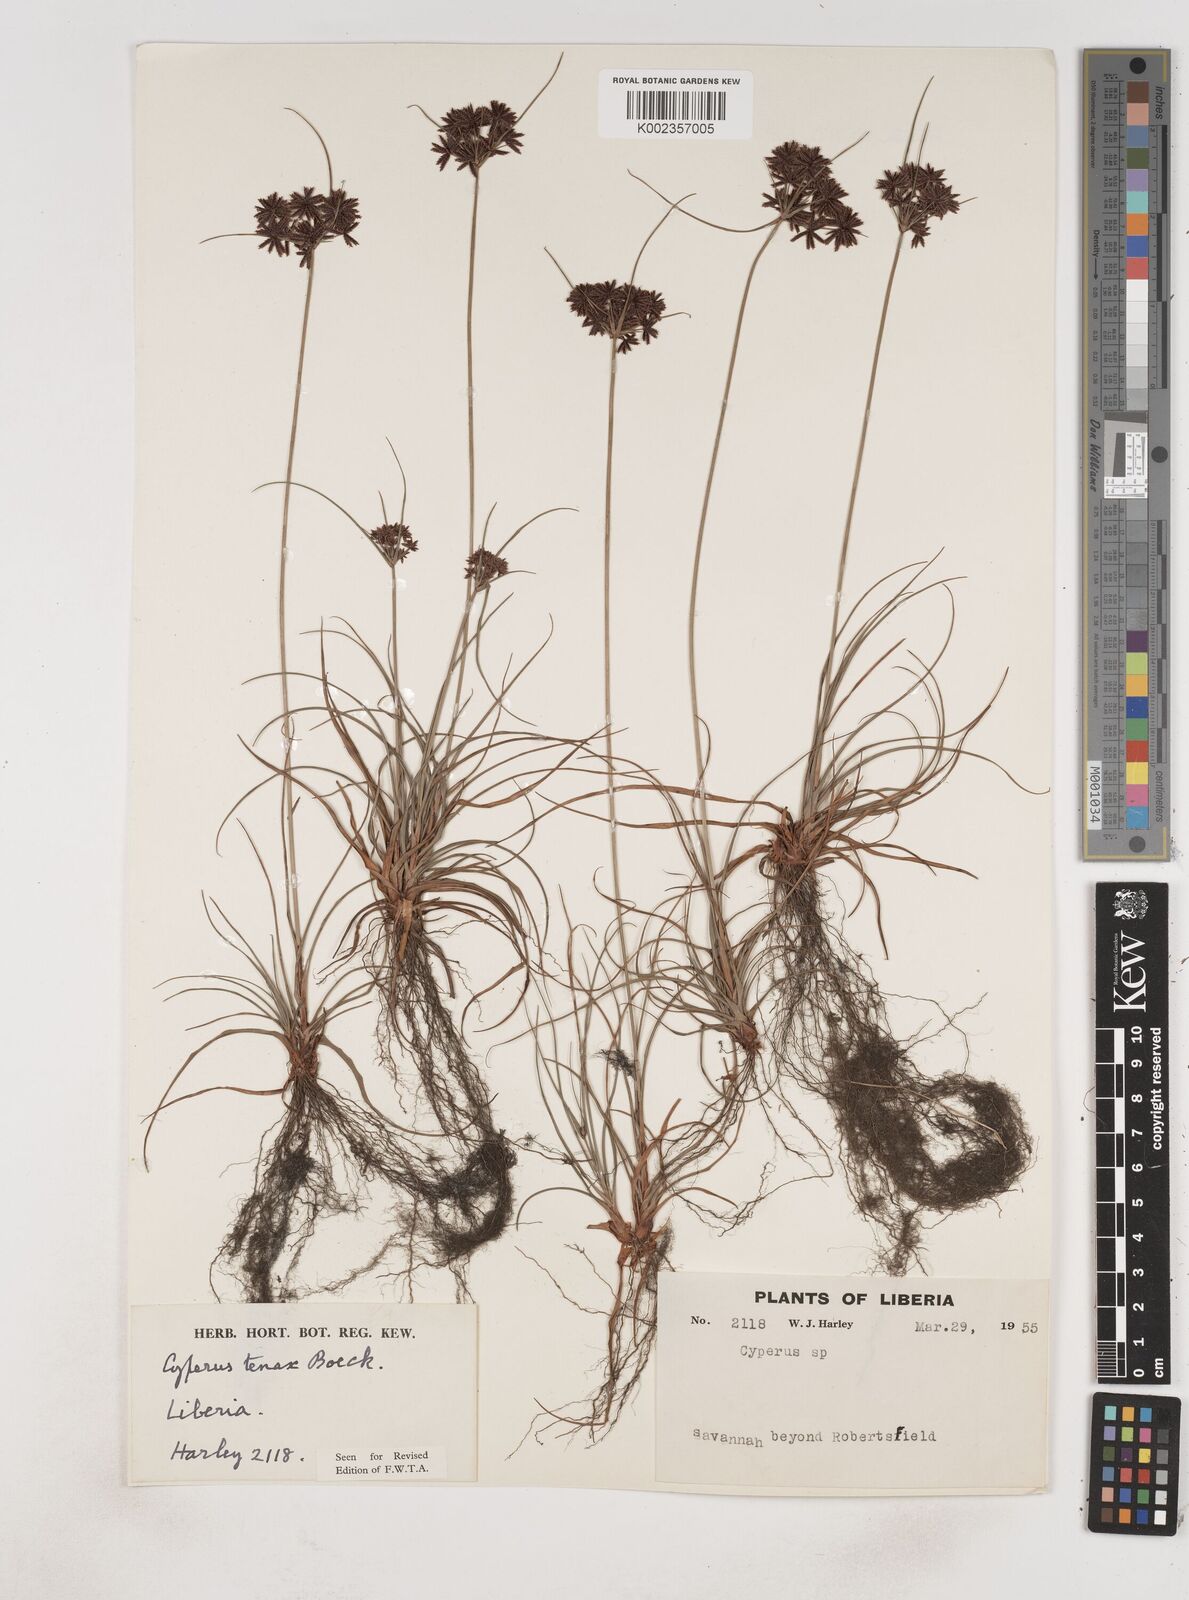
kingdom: Plantae
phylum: Tracheophyta
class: Liliopsida
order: Poales
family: Cyperaceae
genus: Cyperus
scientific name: Cyperus tenax
